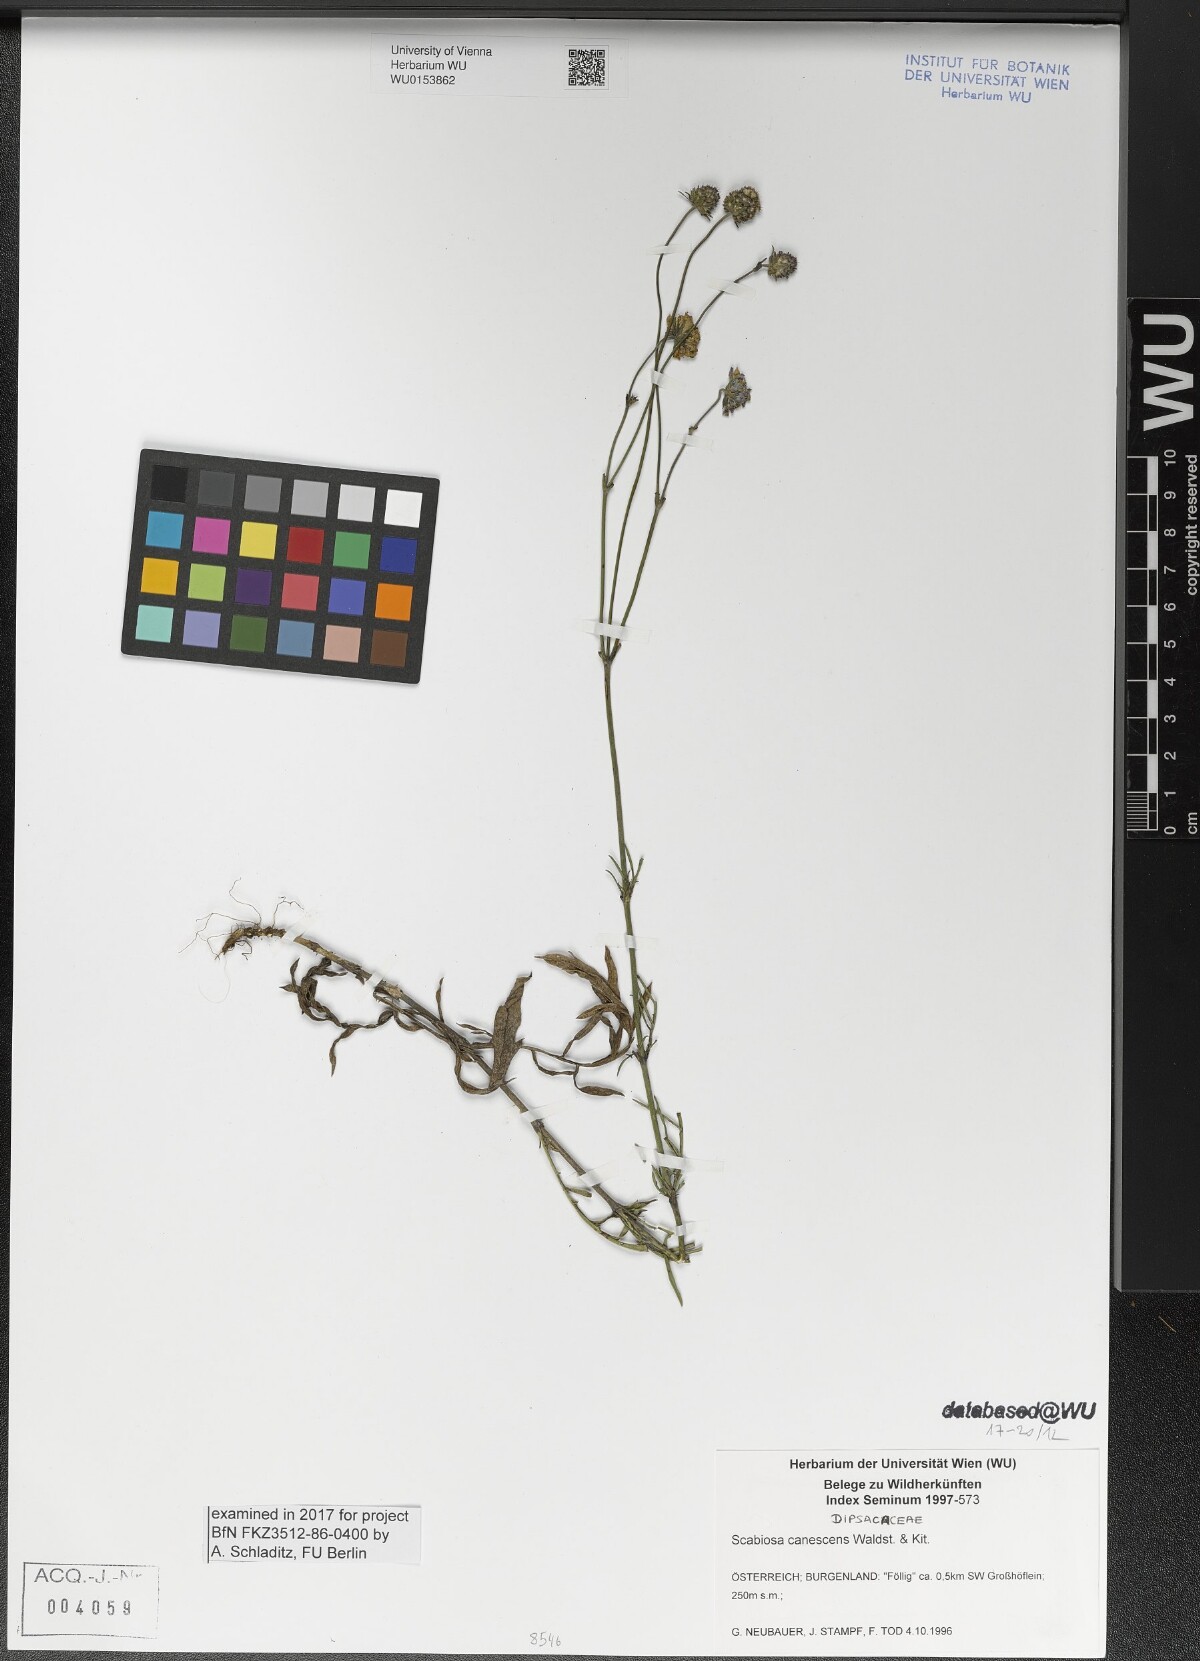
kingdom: Plantae
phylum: Tracheophyta
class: Magnoliopsida
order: Dipsacales
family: Caprifoliaceae
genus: Scabiosa
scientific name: Scabiosa canescens
